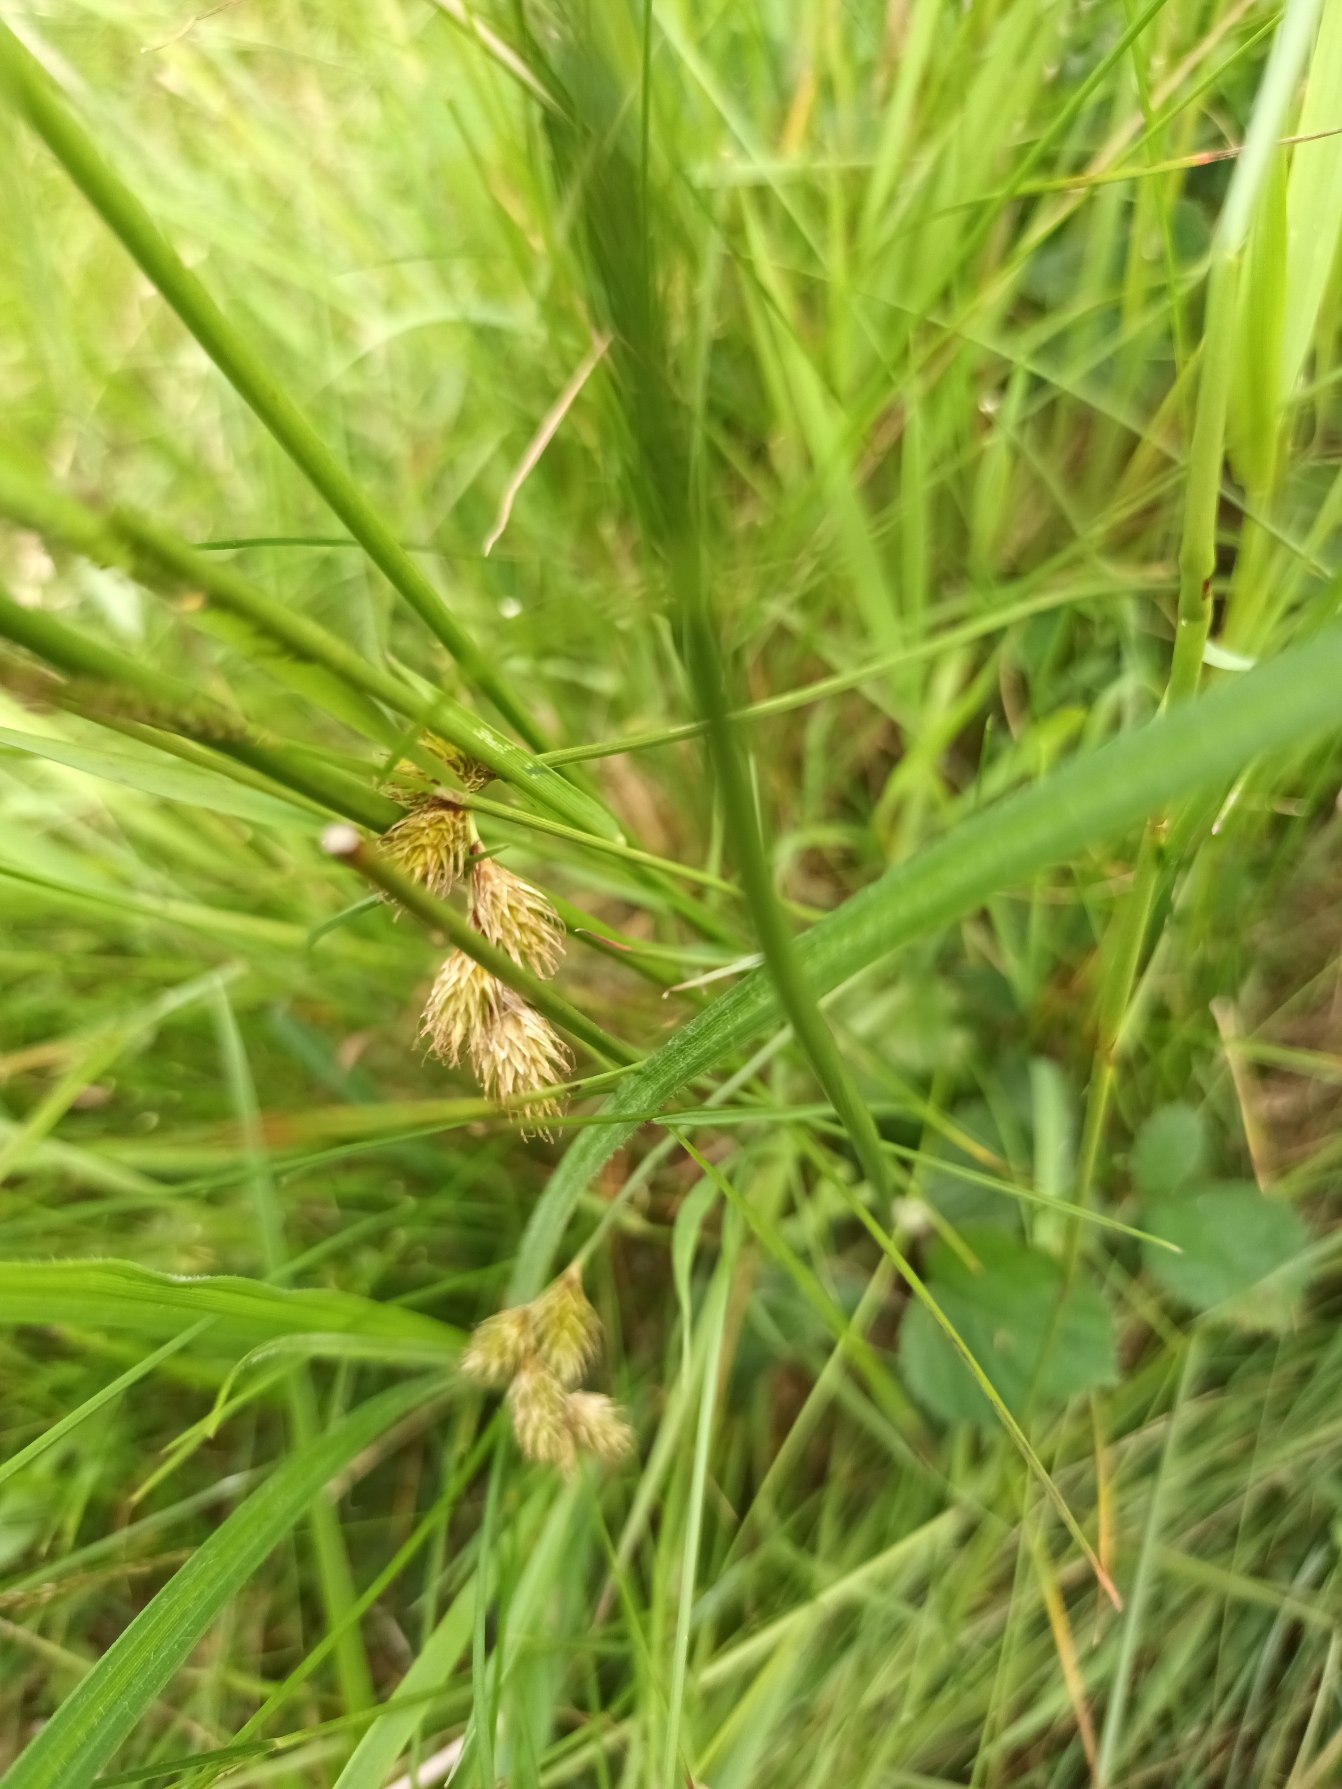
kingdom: Plantae
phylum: Tracheophyta
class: Liliopsida
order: Poales
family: Cyperaceae
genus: Carex
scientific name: Carex leporina
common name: Hare-star
